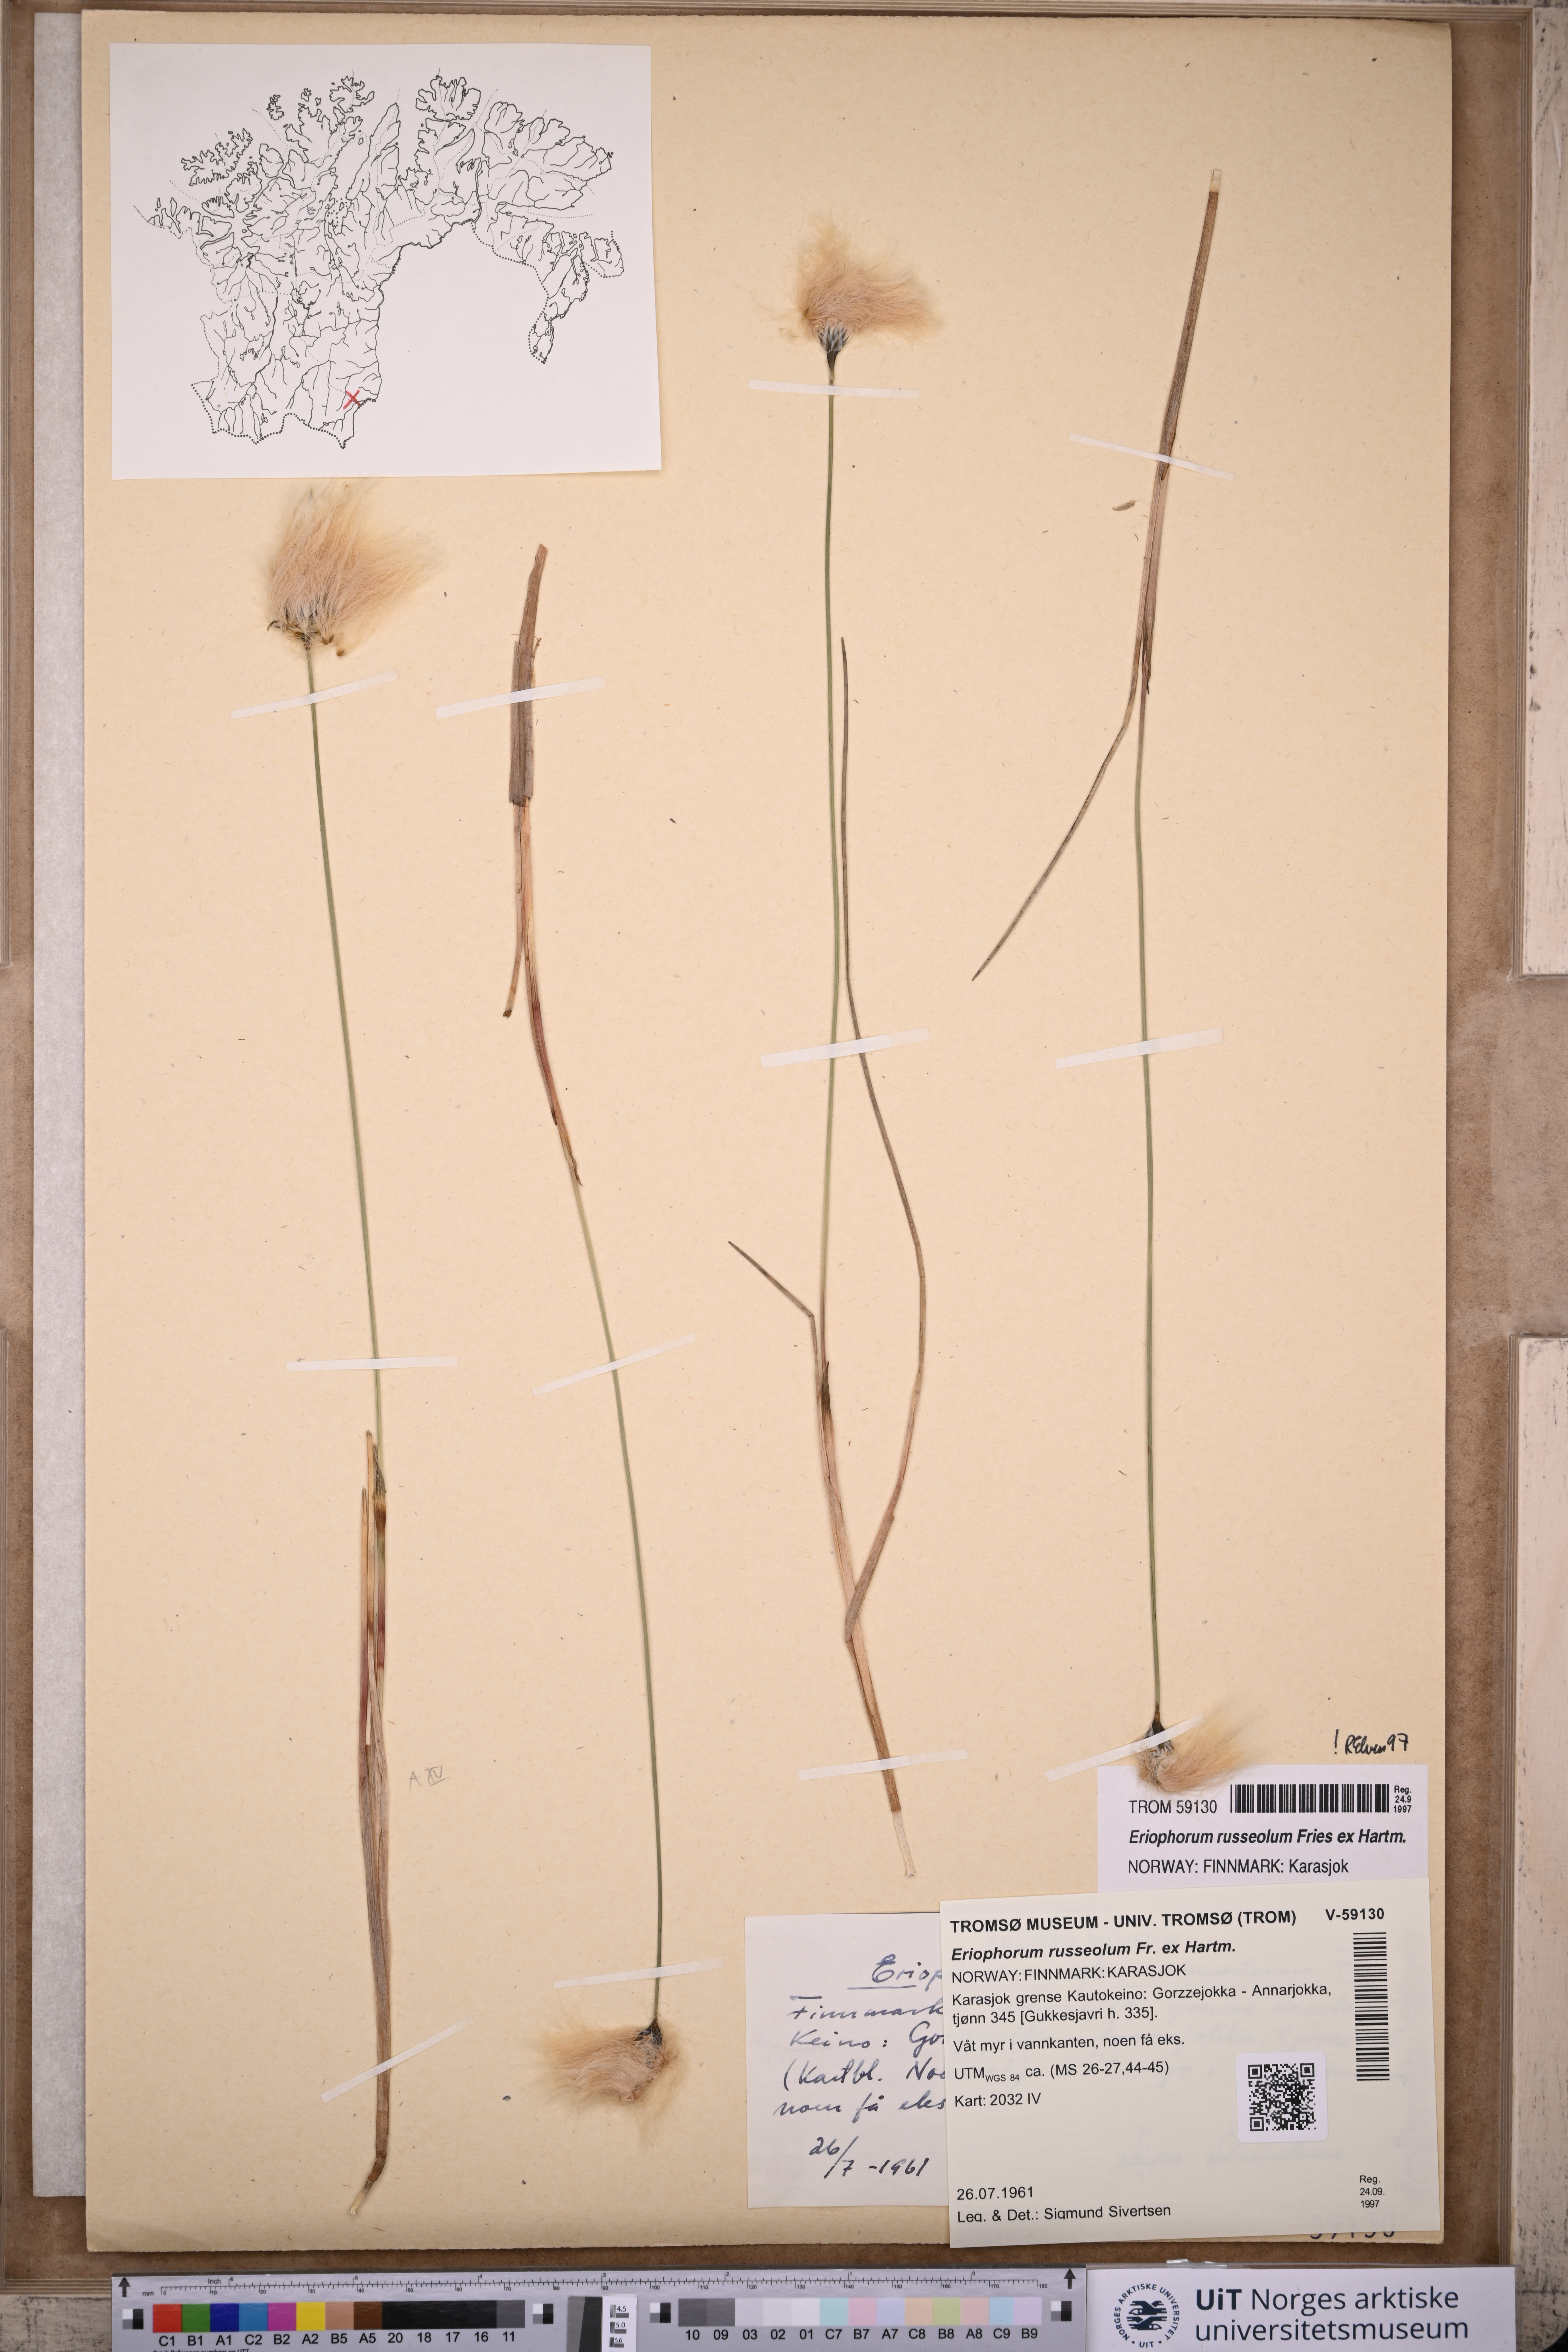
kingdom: Plantae
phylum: Tracheophyta
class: Liliopsida
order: Poales
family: Cyperaceae
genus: Eriophorum
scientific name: Eriophorum russeolum
